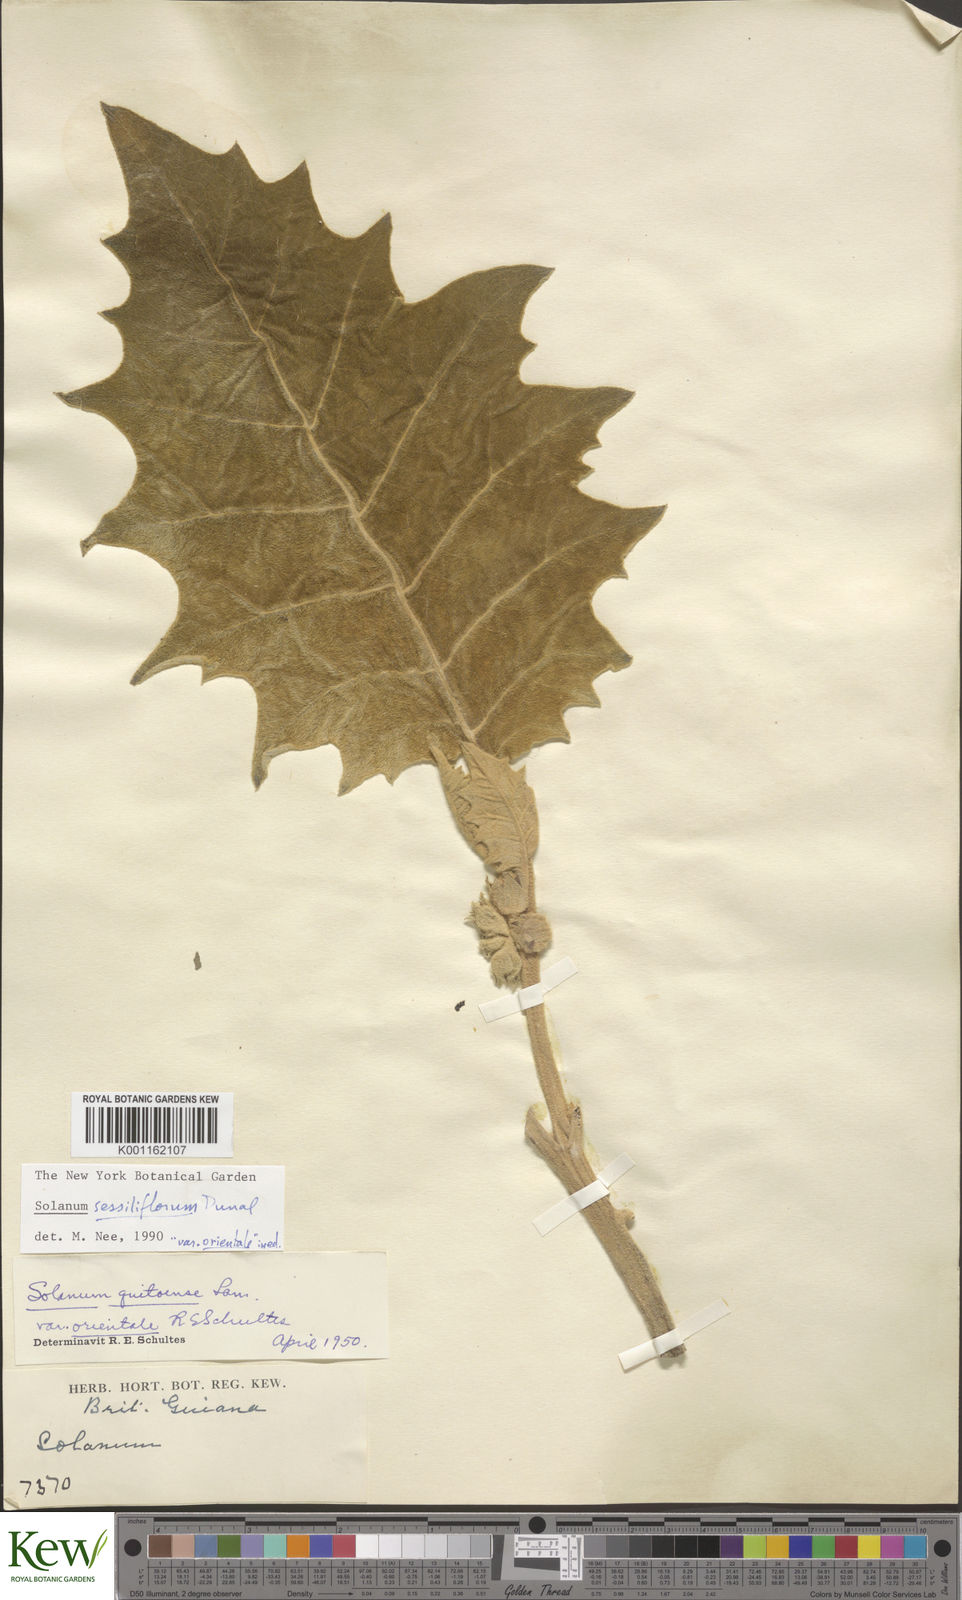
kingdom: Plantae
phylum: Tracheophyta
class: Magnoliopsida
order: Solanales
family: Solanaceae
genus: Solanum
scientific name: Solanum sessiliflorum
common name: Orinoco-apple
